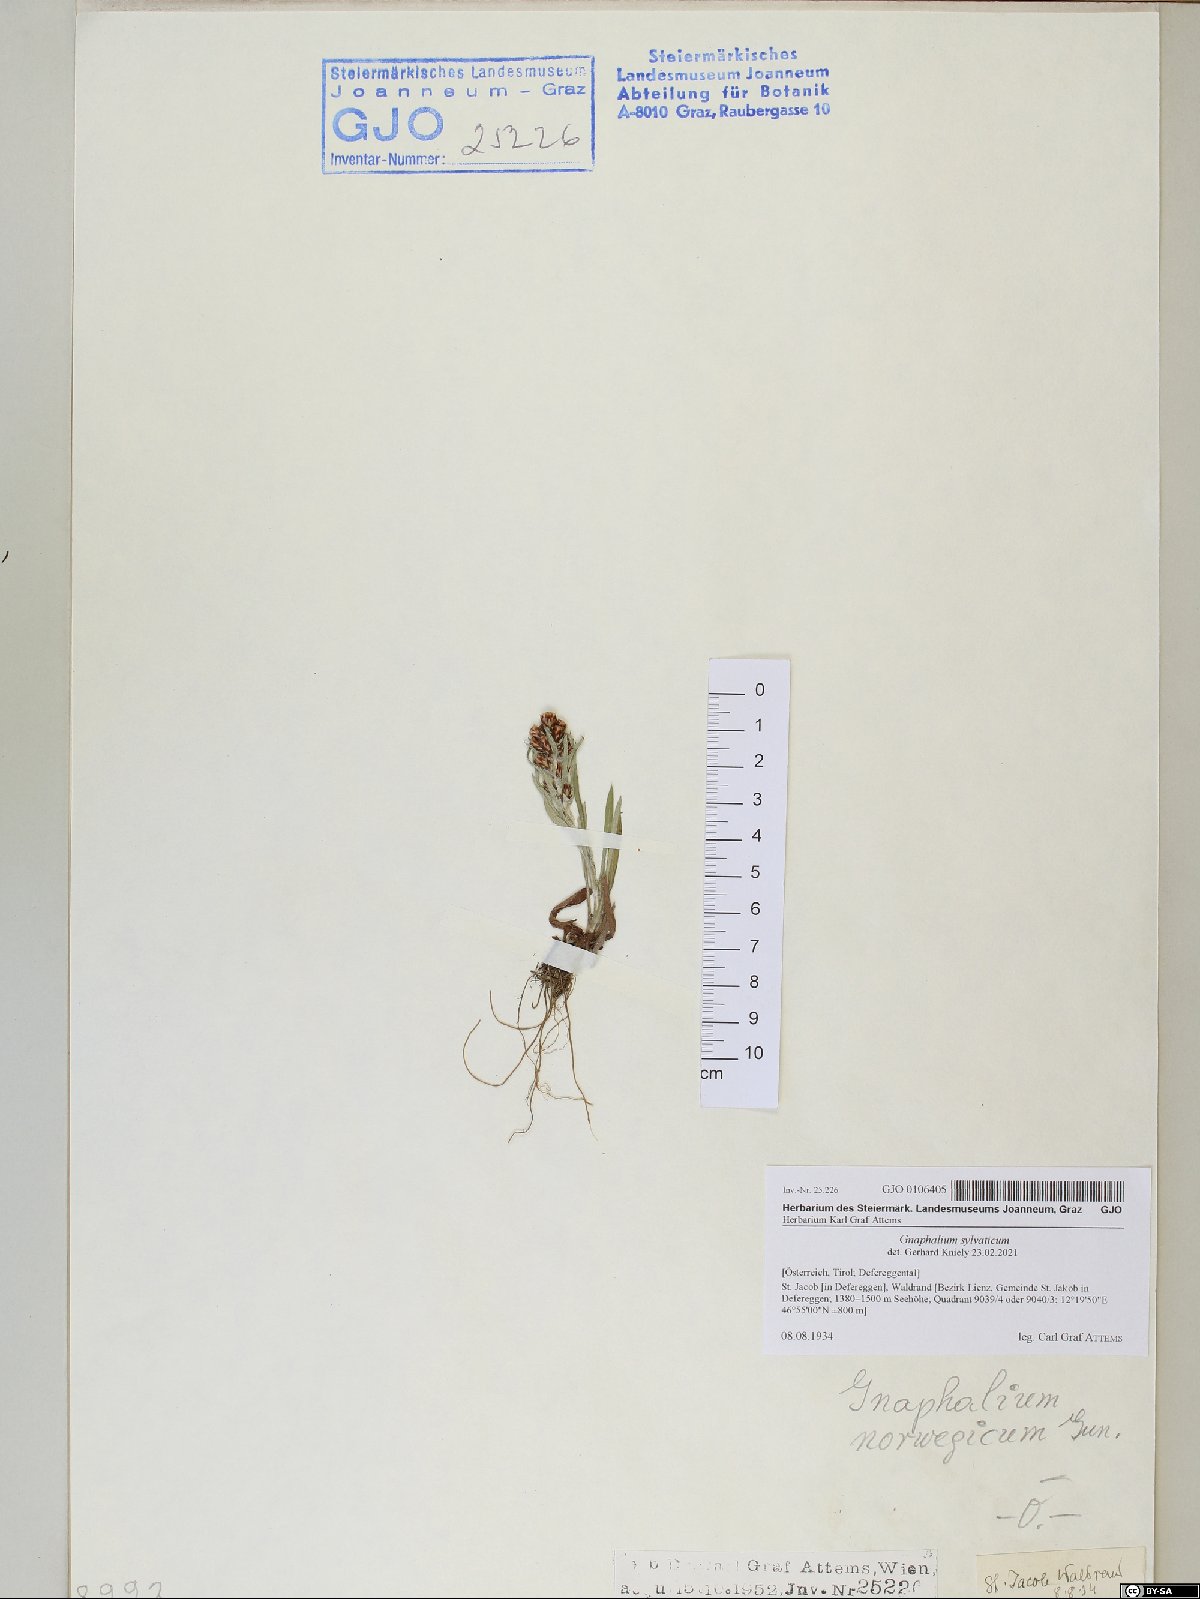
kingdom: Plantae
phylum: Tracheophyta
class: Magnoliopsida
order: Asterales
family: Asteraceae
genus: Omalotheca
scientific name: Omalotheca sylvatica
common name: Heath cudweed
